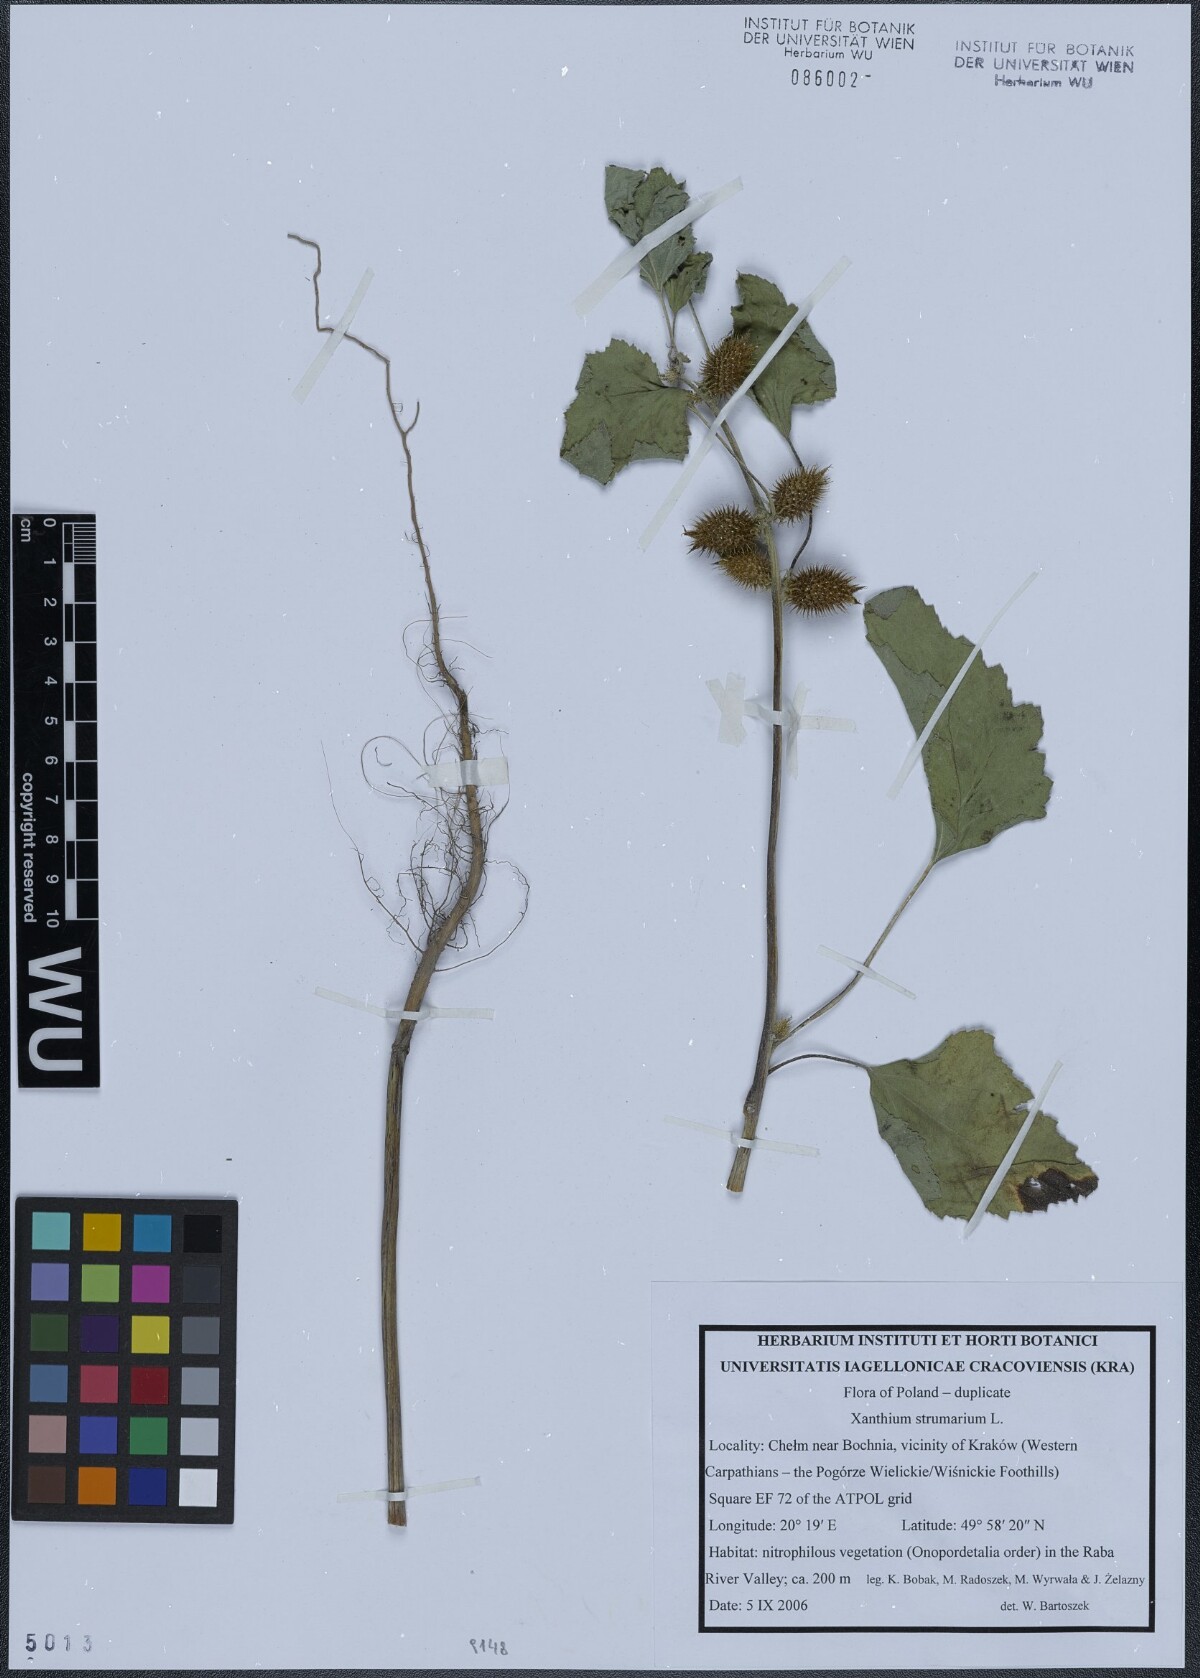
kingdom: Plantae
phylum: Tracheophyta
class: Magnoliopsida
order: Asterales
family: Asteraceae
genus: Xanthium
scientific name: Xanthium strumarium
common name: Rough cocklebur
